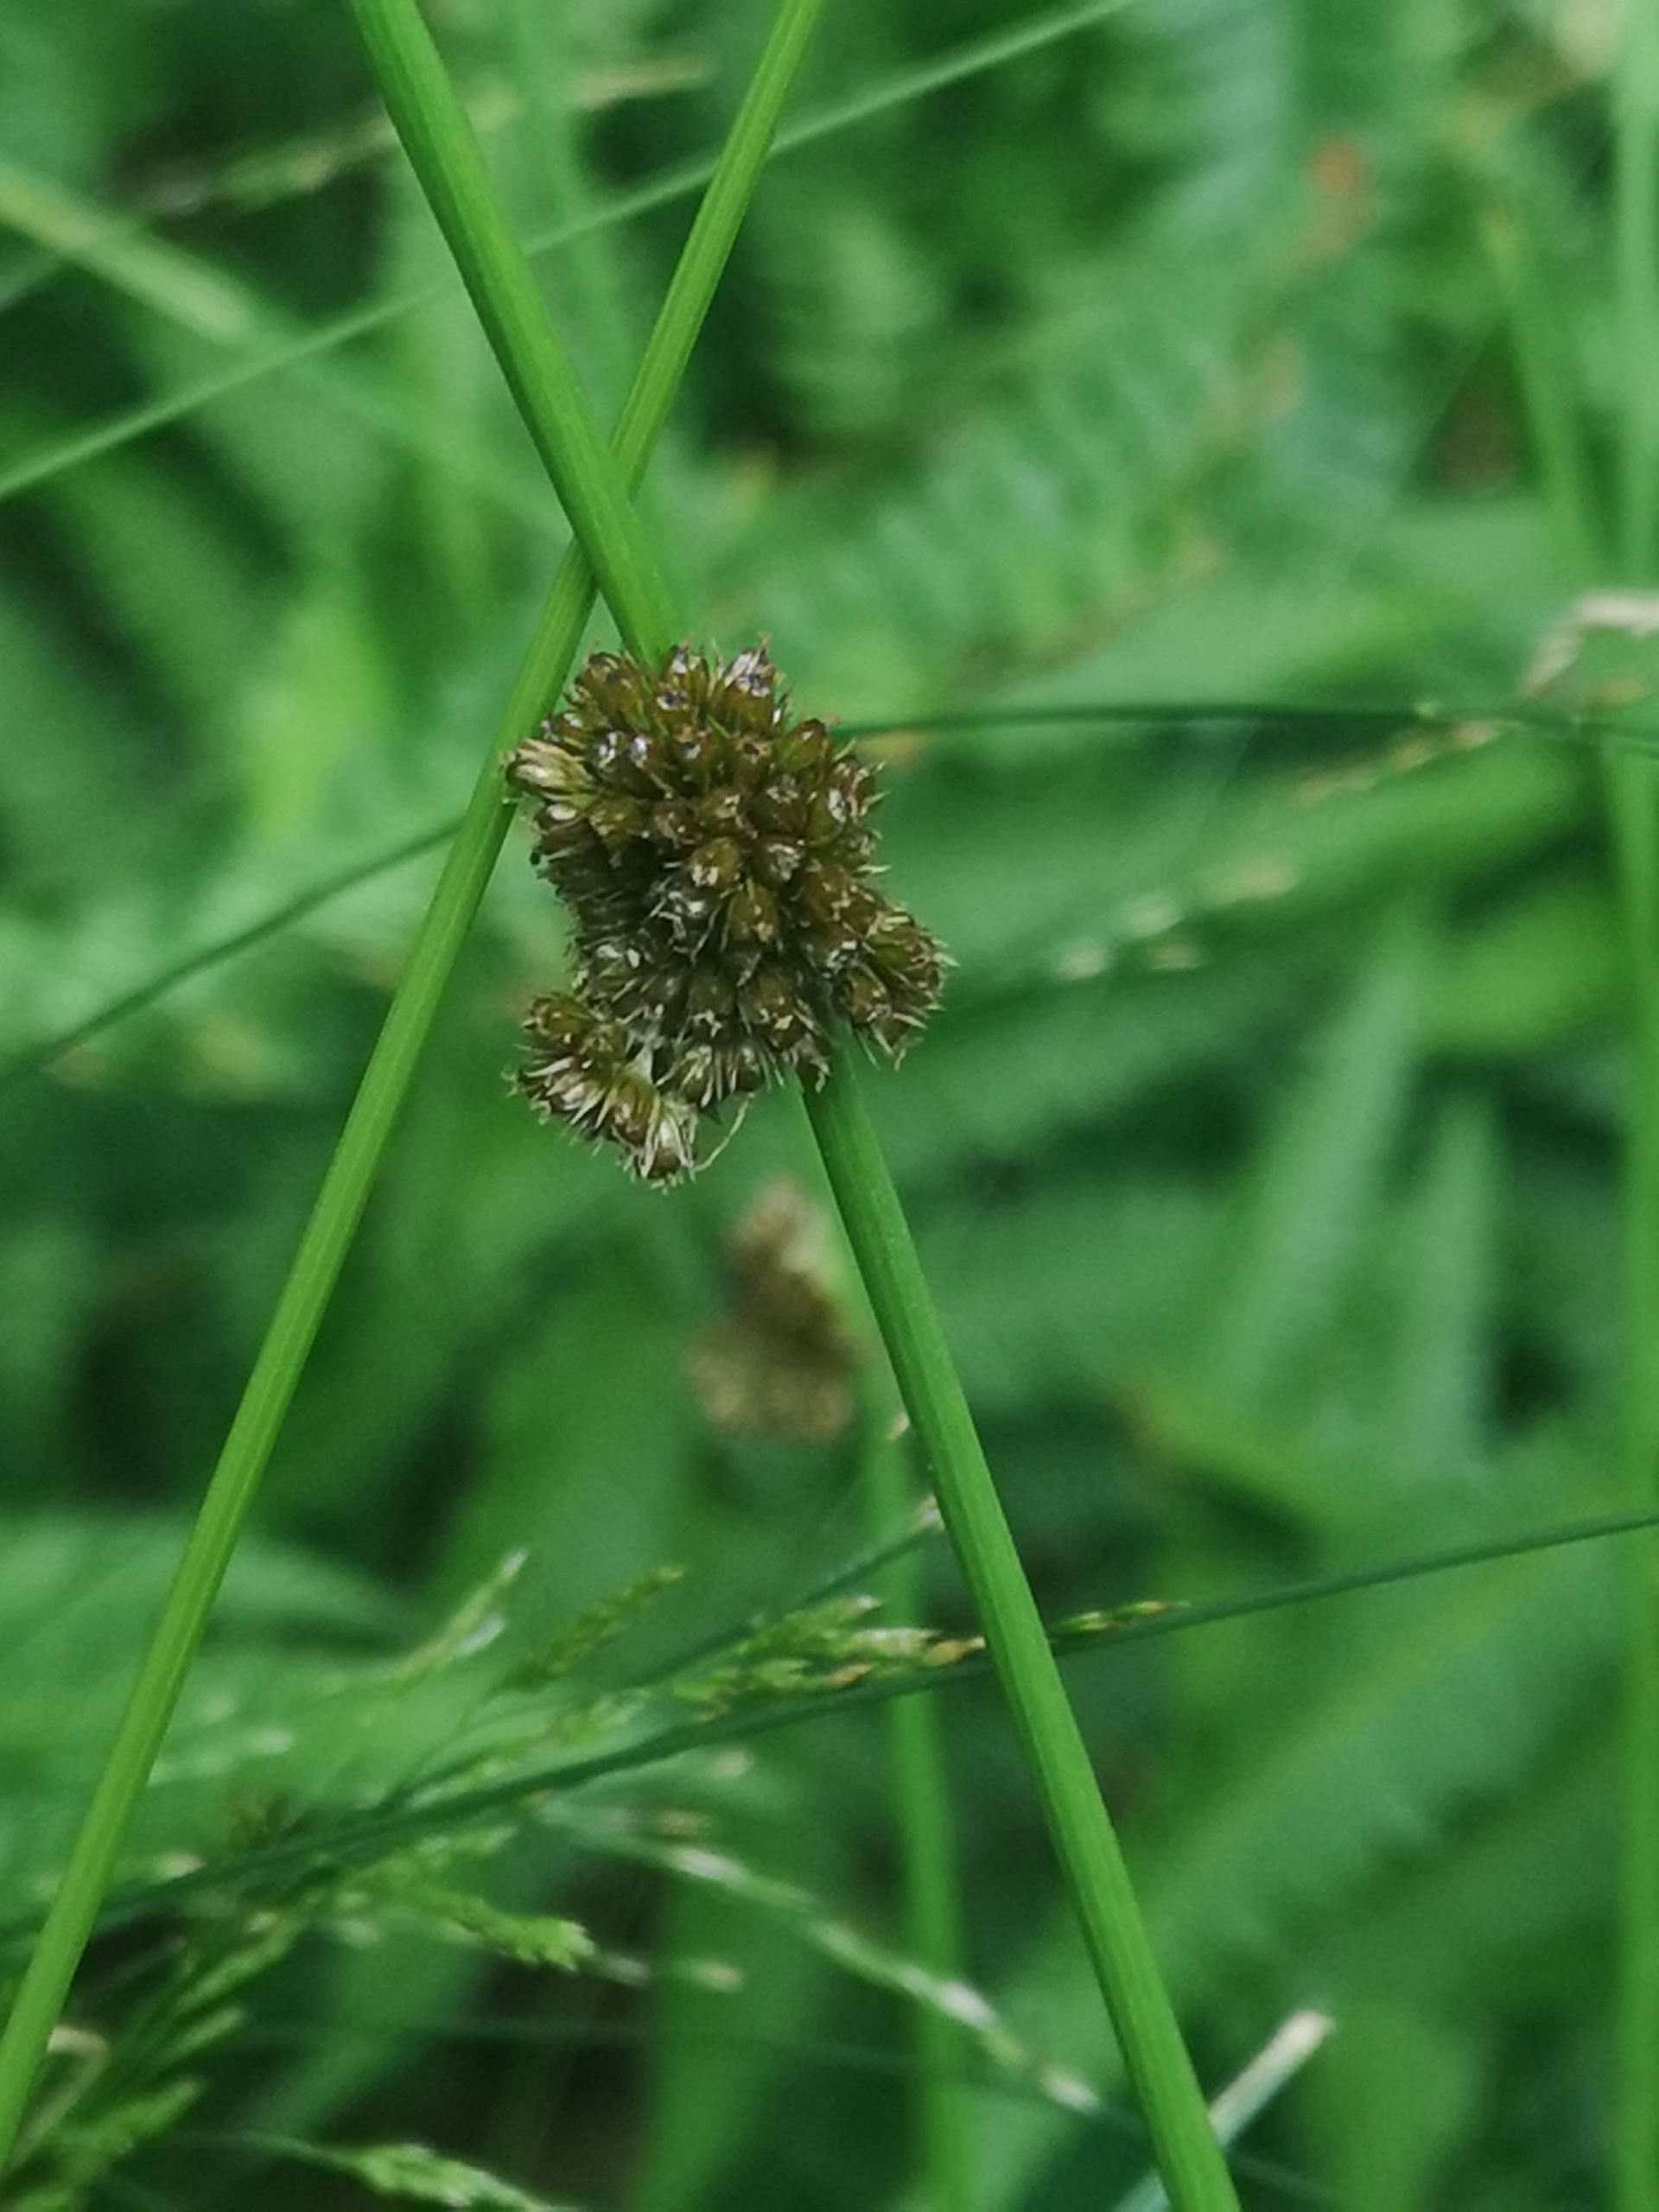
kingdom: Plantae
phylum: Tracheophyta
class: Liliopsida
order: Poales
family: Juncaceae
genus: Juncus
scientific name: Juncus conglomeratus
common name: Knop-siv
